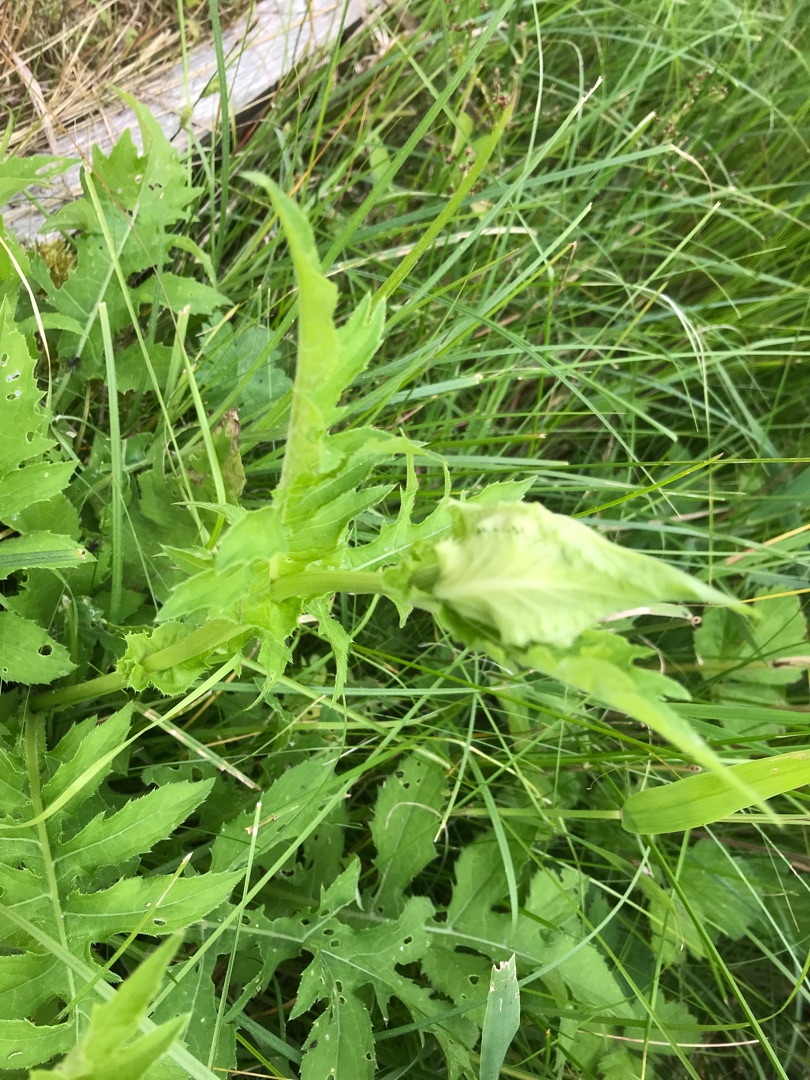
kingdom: Plantae
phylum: Tracheophyta
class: Magnoliopsida
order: Asterales
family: Asteraceae
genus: Cirsium
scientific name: Cirsium oleraceum
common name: Kål-tidsel
